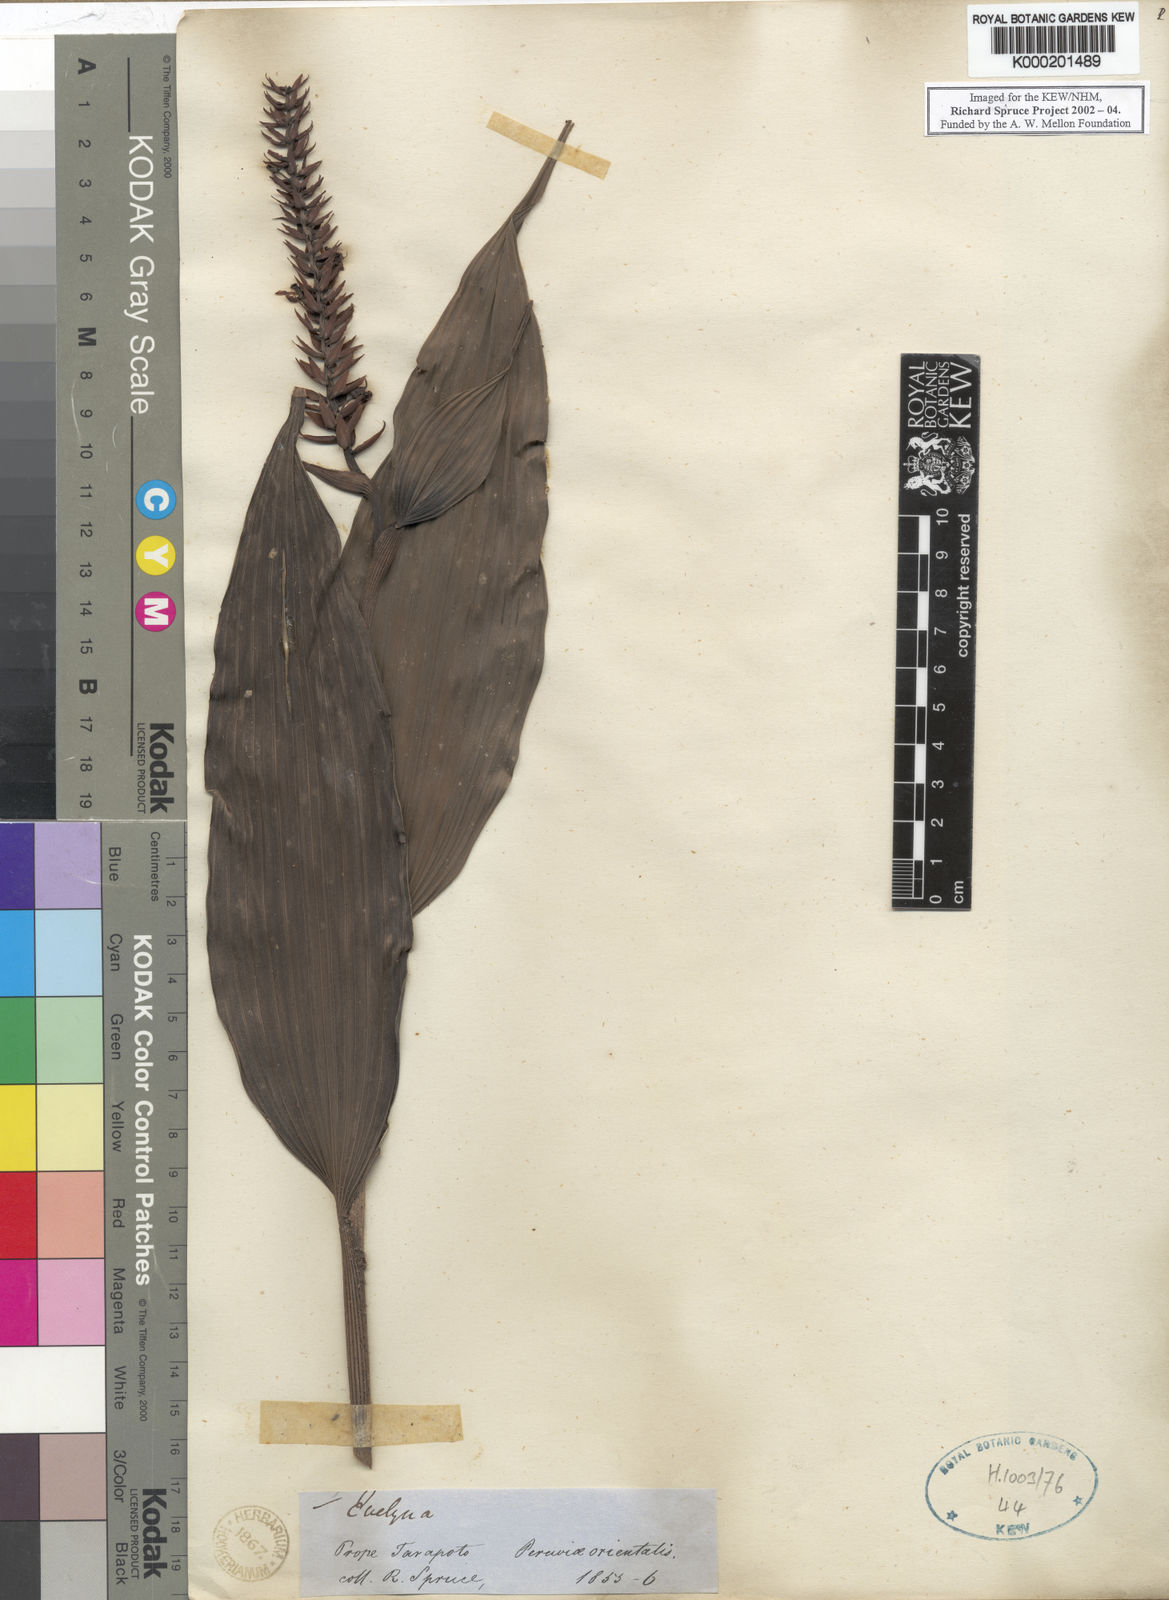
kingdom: Plantae
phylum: Tracheophyta
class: Liliopsida
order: Asparagales
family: Orchidaceae
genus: Elleanthus
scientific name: Elleanthus
